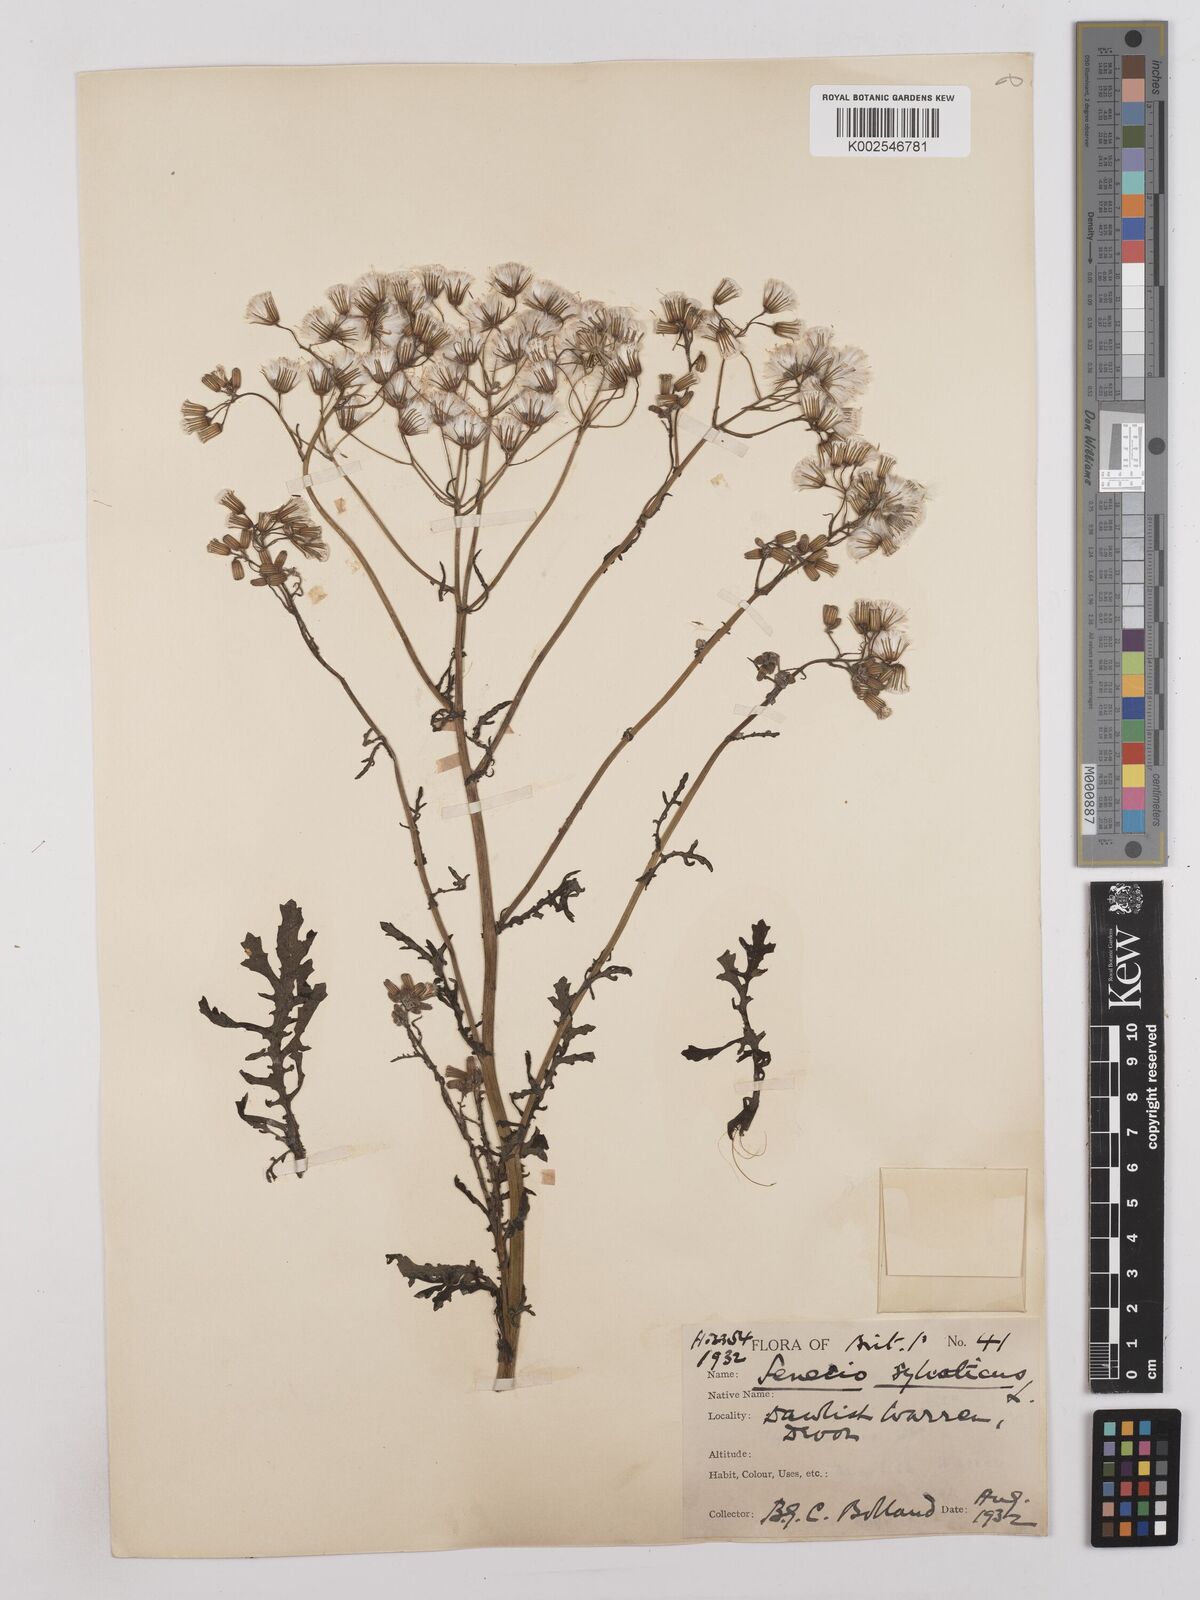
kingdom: Plantae
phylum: Tracheophyta
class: Magnoliopsida
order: Asterales
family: Asteraceae
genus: Senecio
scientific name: Senecio sylvaticus
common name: Woodland ragwort
